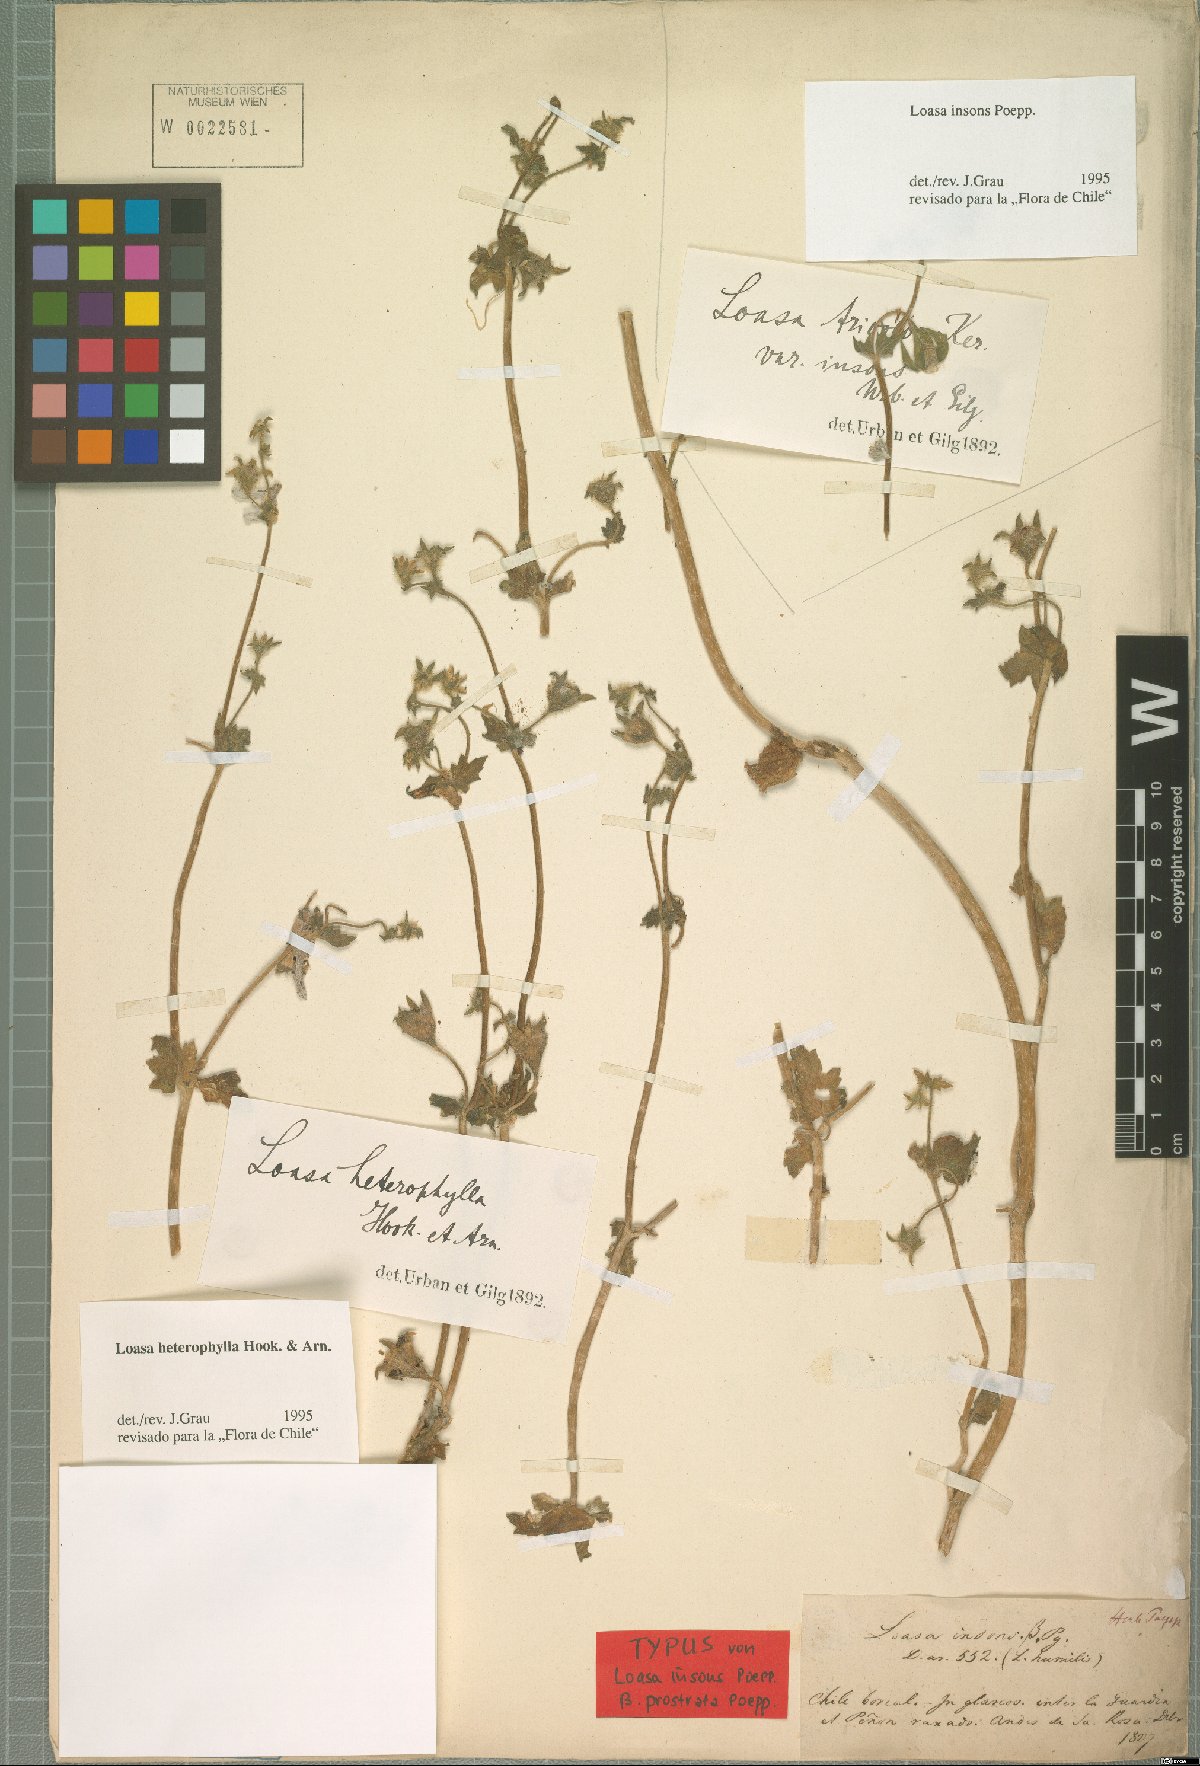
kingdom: Plantae
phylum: Tracheophyta
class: Magnoliopsida
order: Cornales
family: Loasaceae
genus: Loasa
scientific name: Loasa heterophylla
